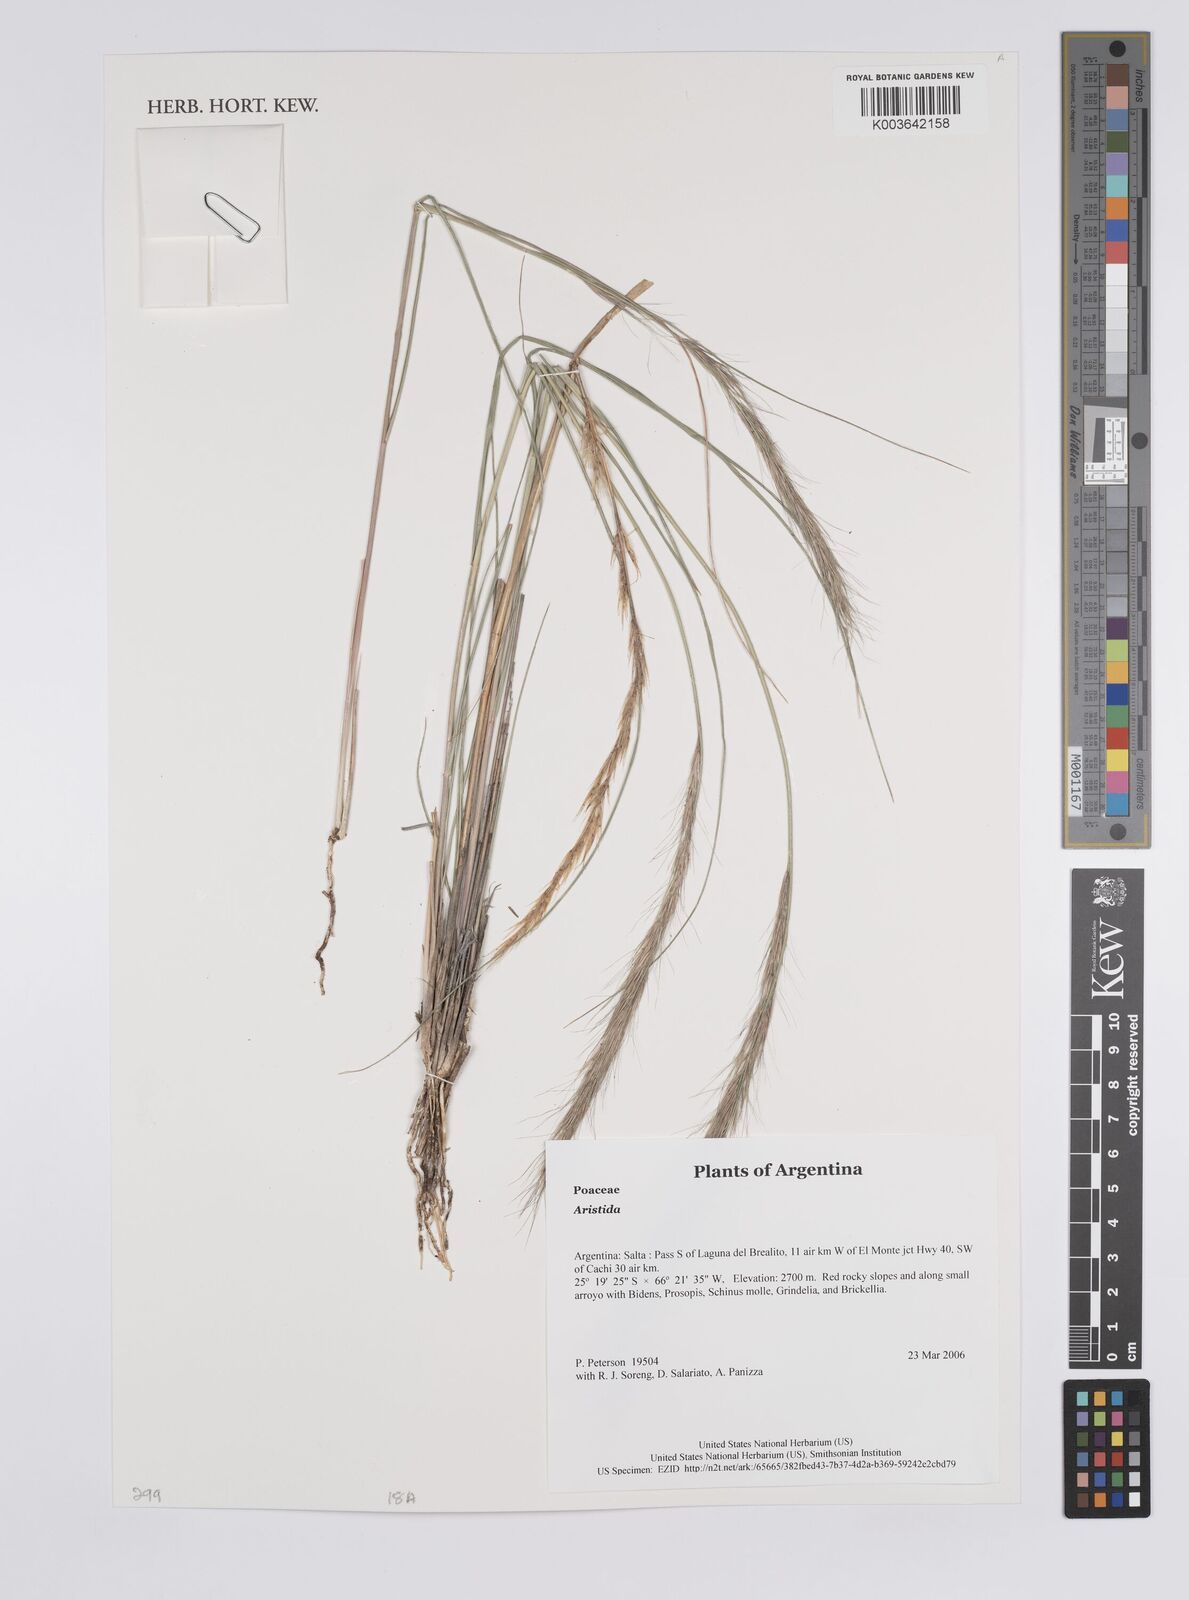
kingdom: Plantae
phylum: Tracheophyta
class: Liliopsida
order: Poales
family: Poaceae
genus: Aristida
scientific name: Aristida
